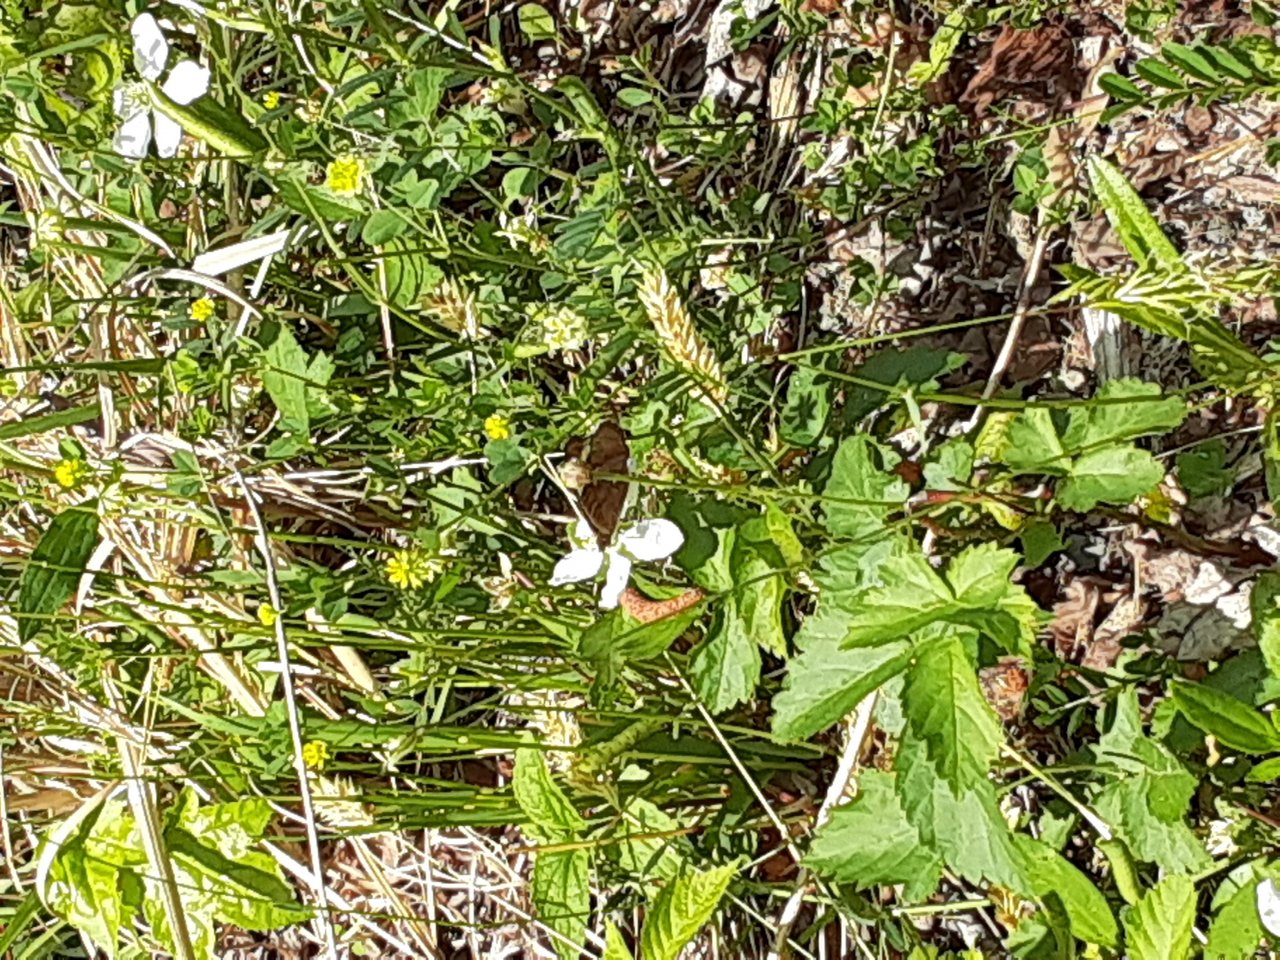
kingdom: Animalia
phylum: Arthropoda
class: Insecta
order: Lepidoptera
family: Nymphalidae
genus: Junonia
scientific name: Junonia coenia
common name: Common Buckeye
